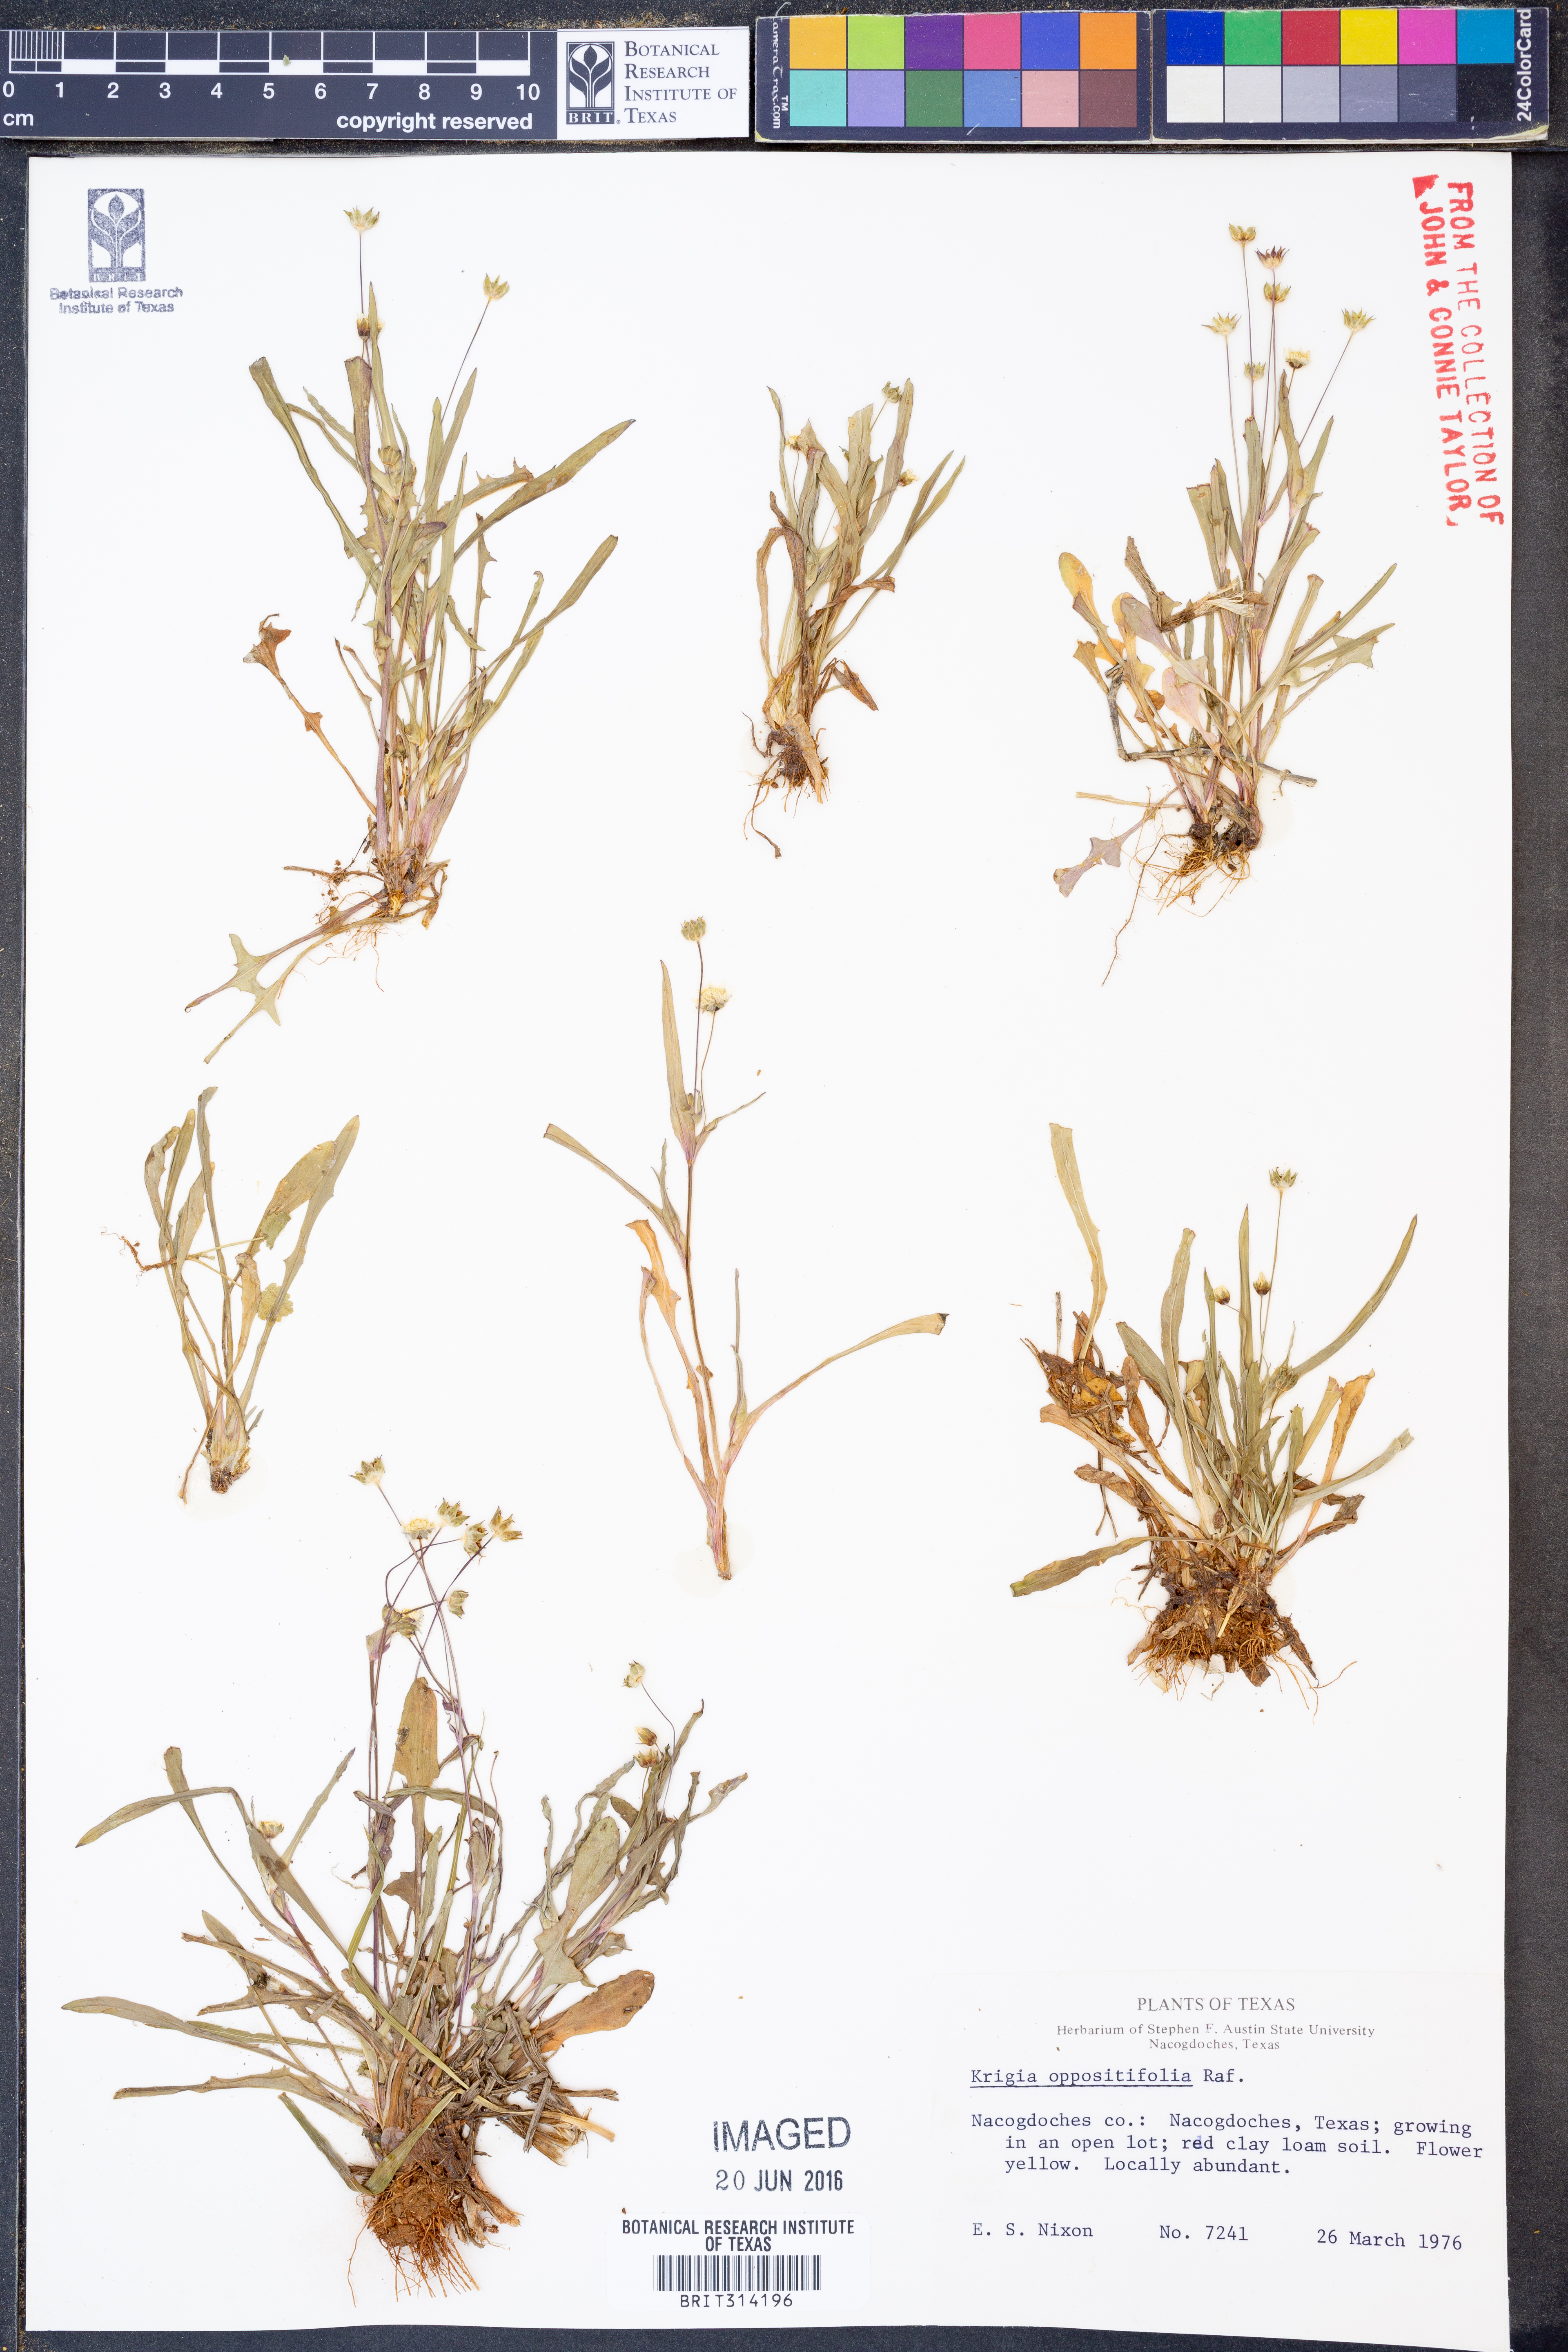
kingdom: Plantae
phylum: Tracheophyta
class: Magnoliopsida
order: Asterales
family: Asteraceae
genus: Krigia
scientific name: Krigia cespitosa
